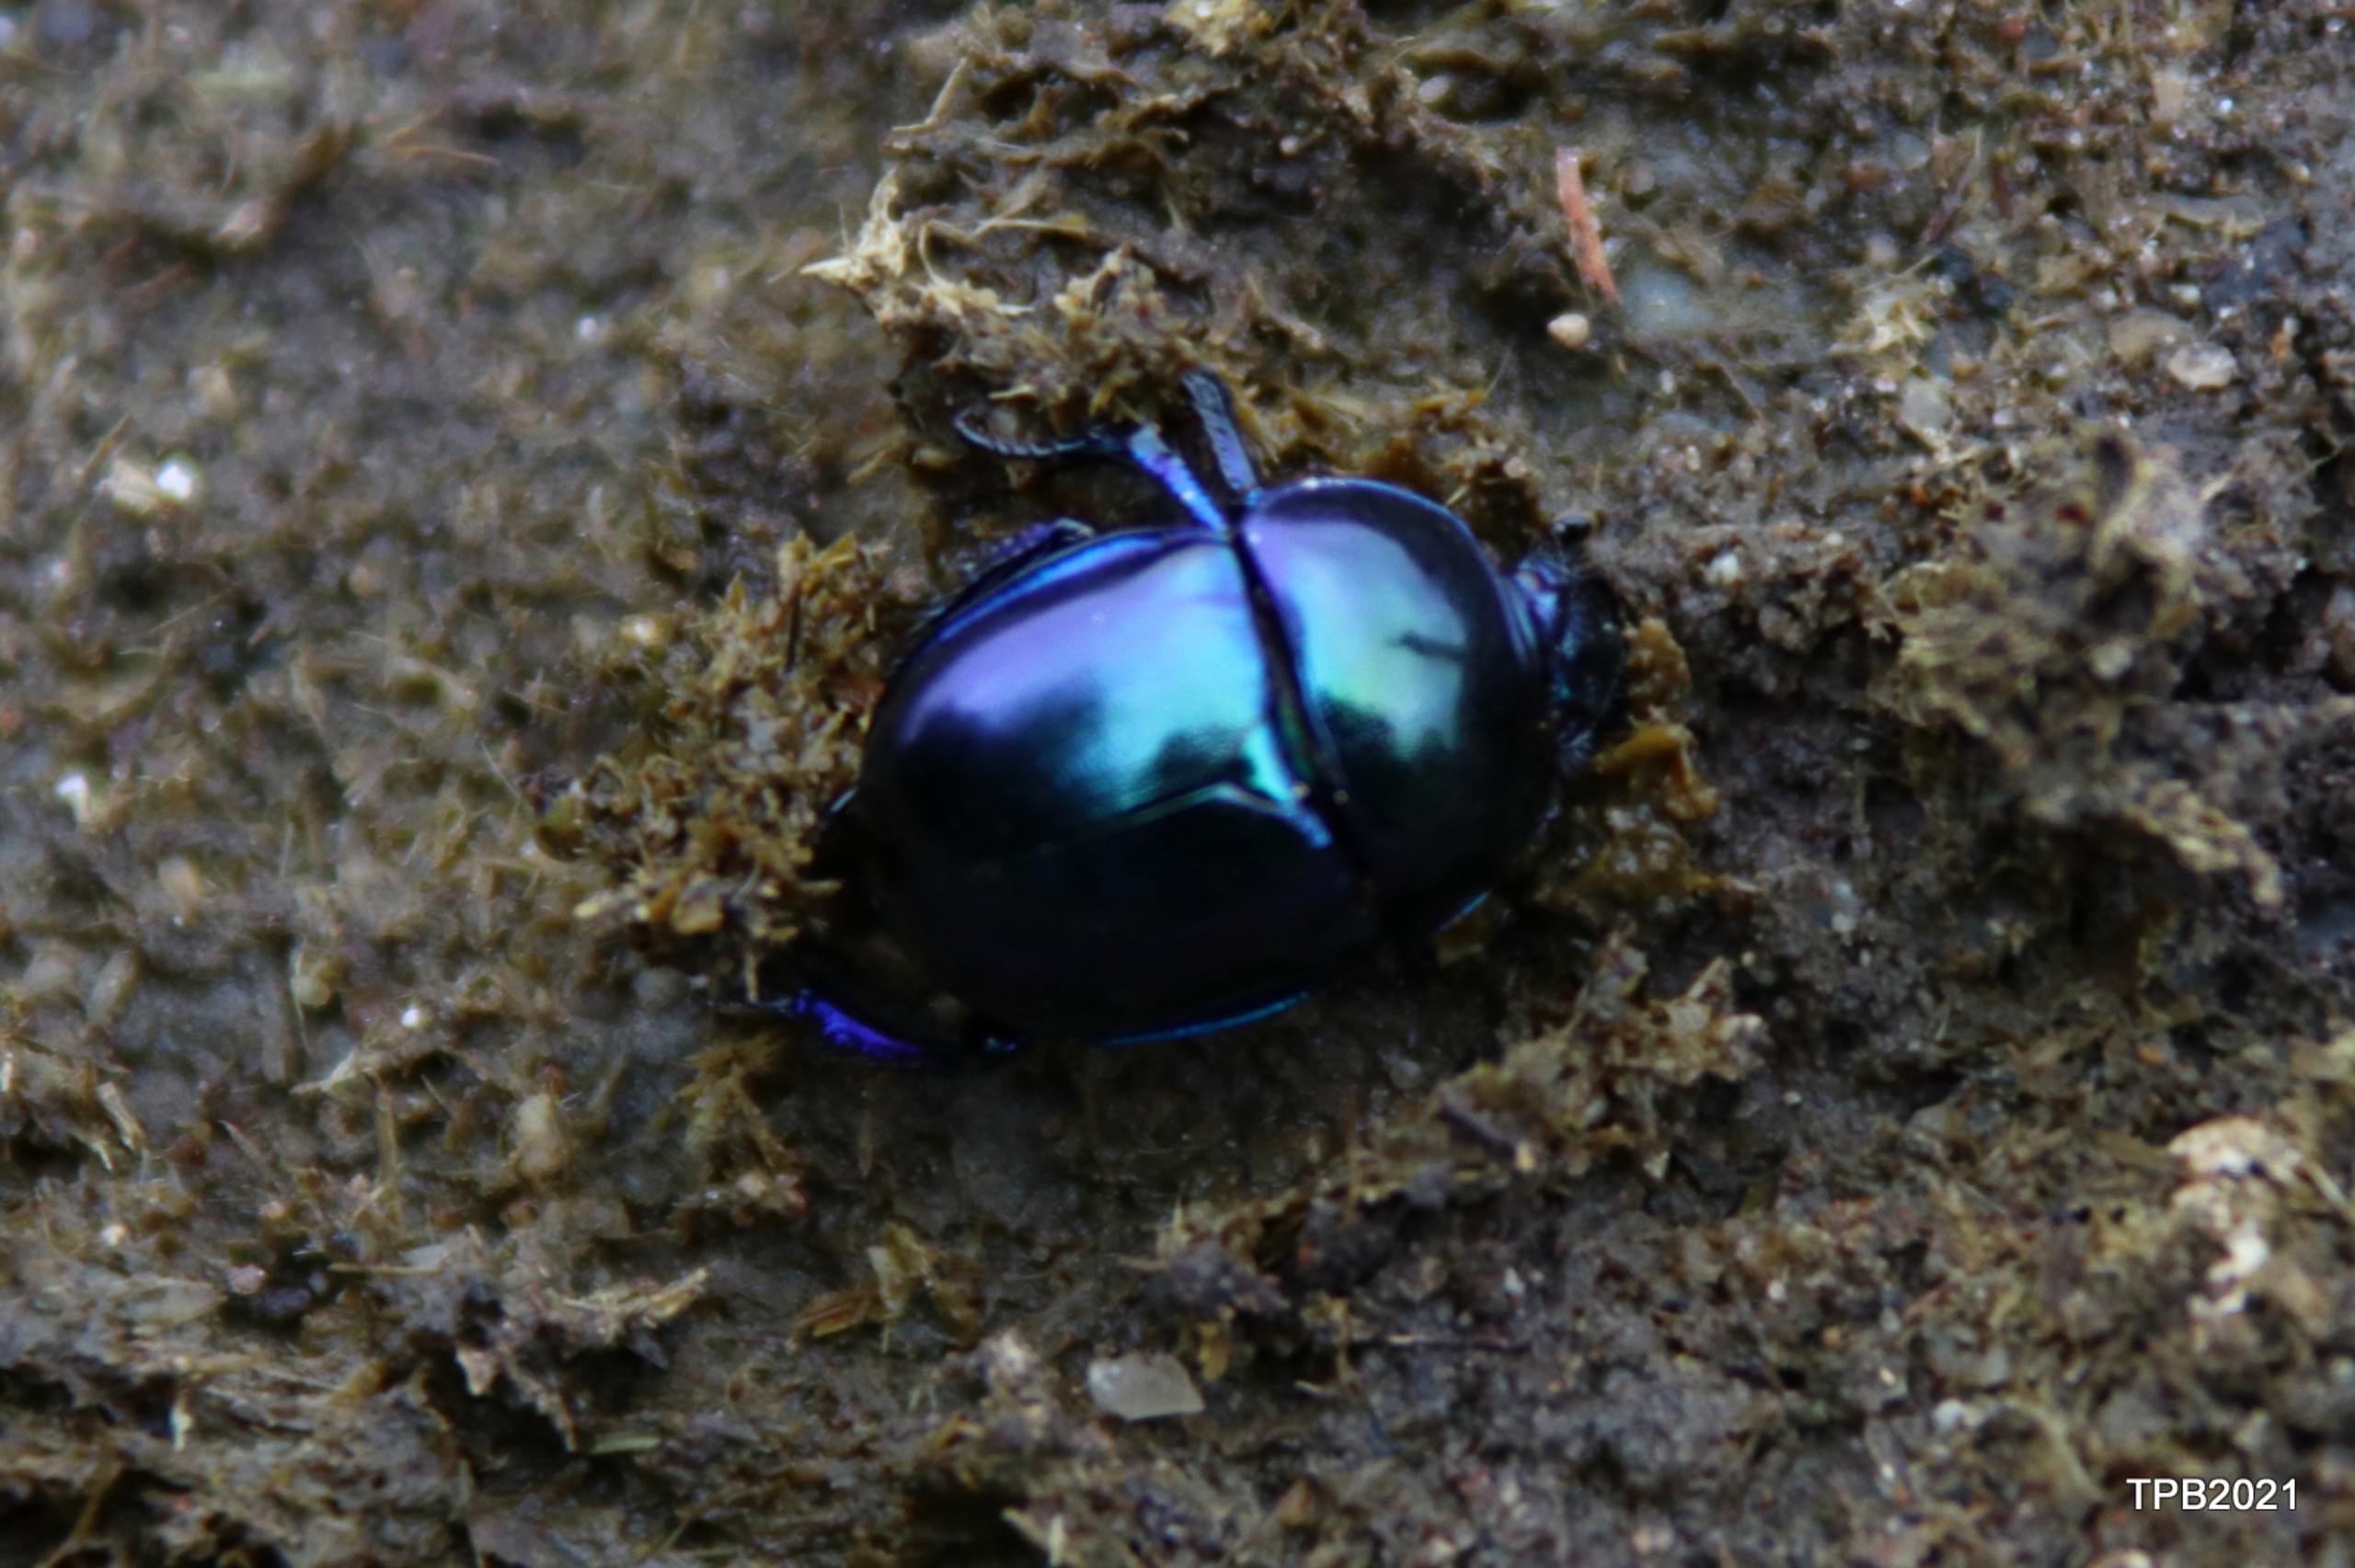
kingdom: Animalia
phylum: Arthropoda
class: Insecta
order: Coleoptera
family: Geotrupidae
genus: Trypocopris
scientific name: Trypocopris vernalis
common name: Glat skarnbasse
